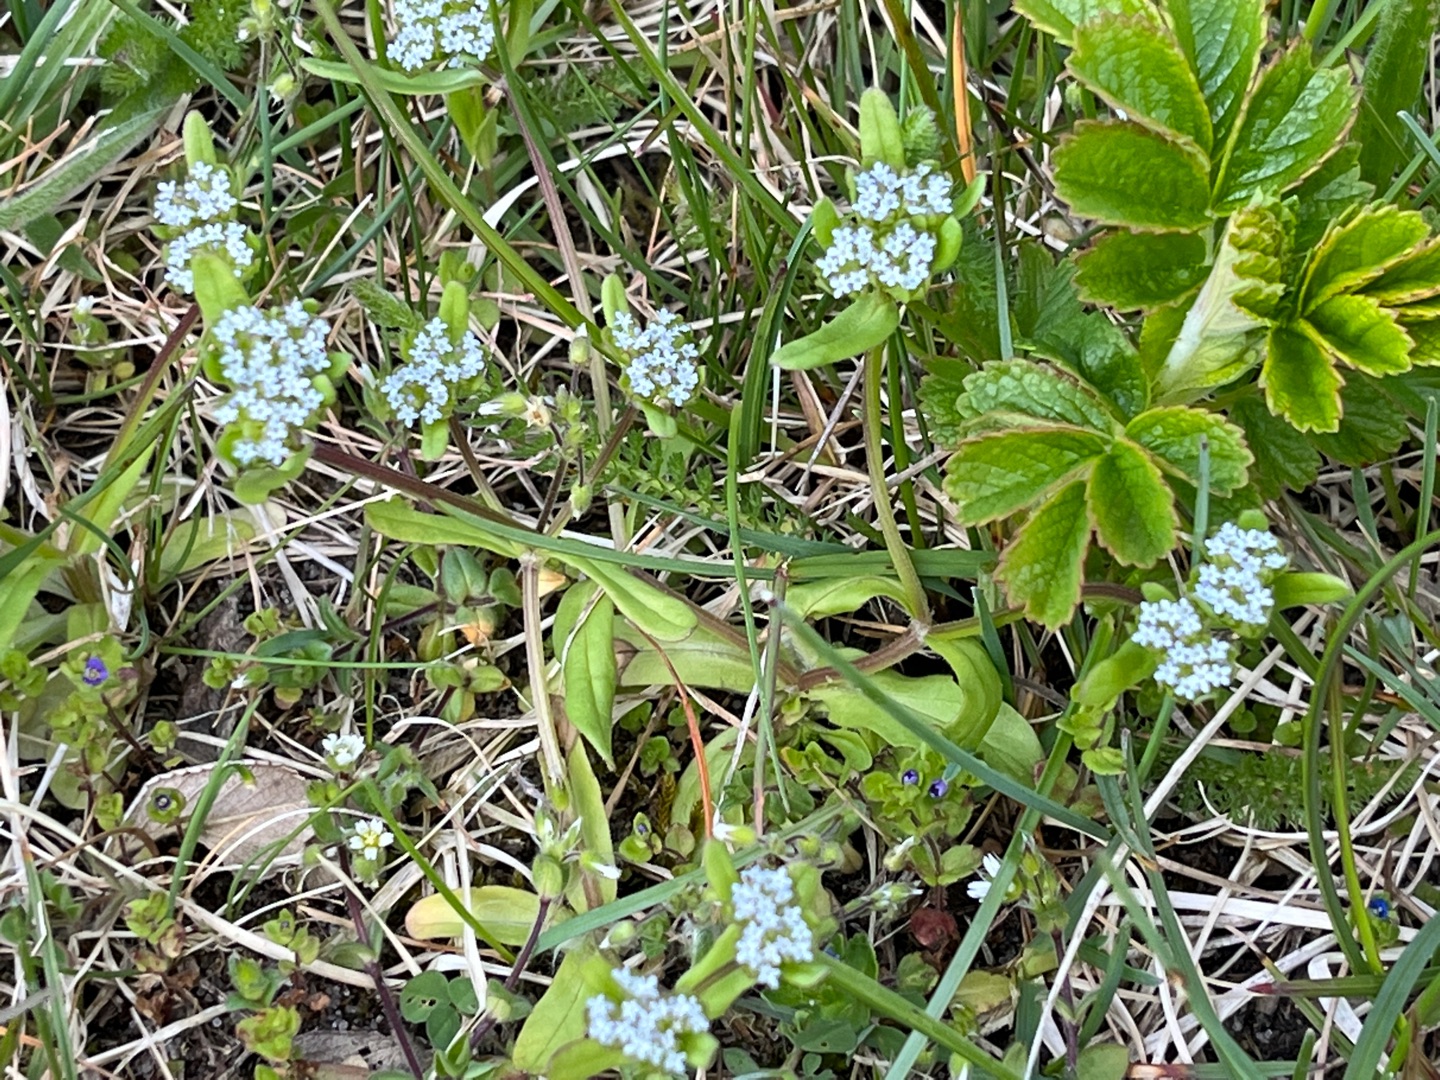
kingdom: Plantae
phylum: Tracheophyta
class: Magnoliopsida
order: Dipsacales
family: Caprifoliaceae
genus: Valerianella
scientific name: Valerianella locusta
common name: Tandfri vårsalat
